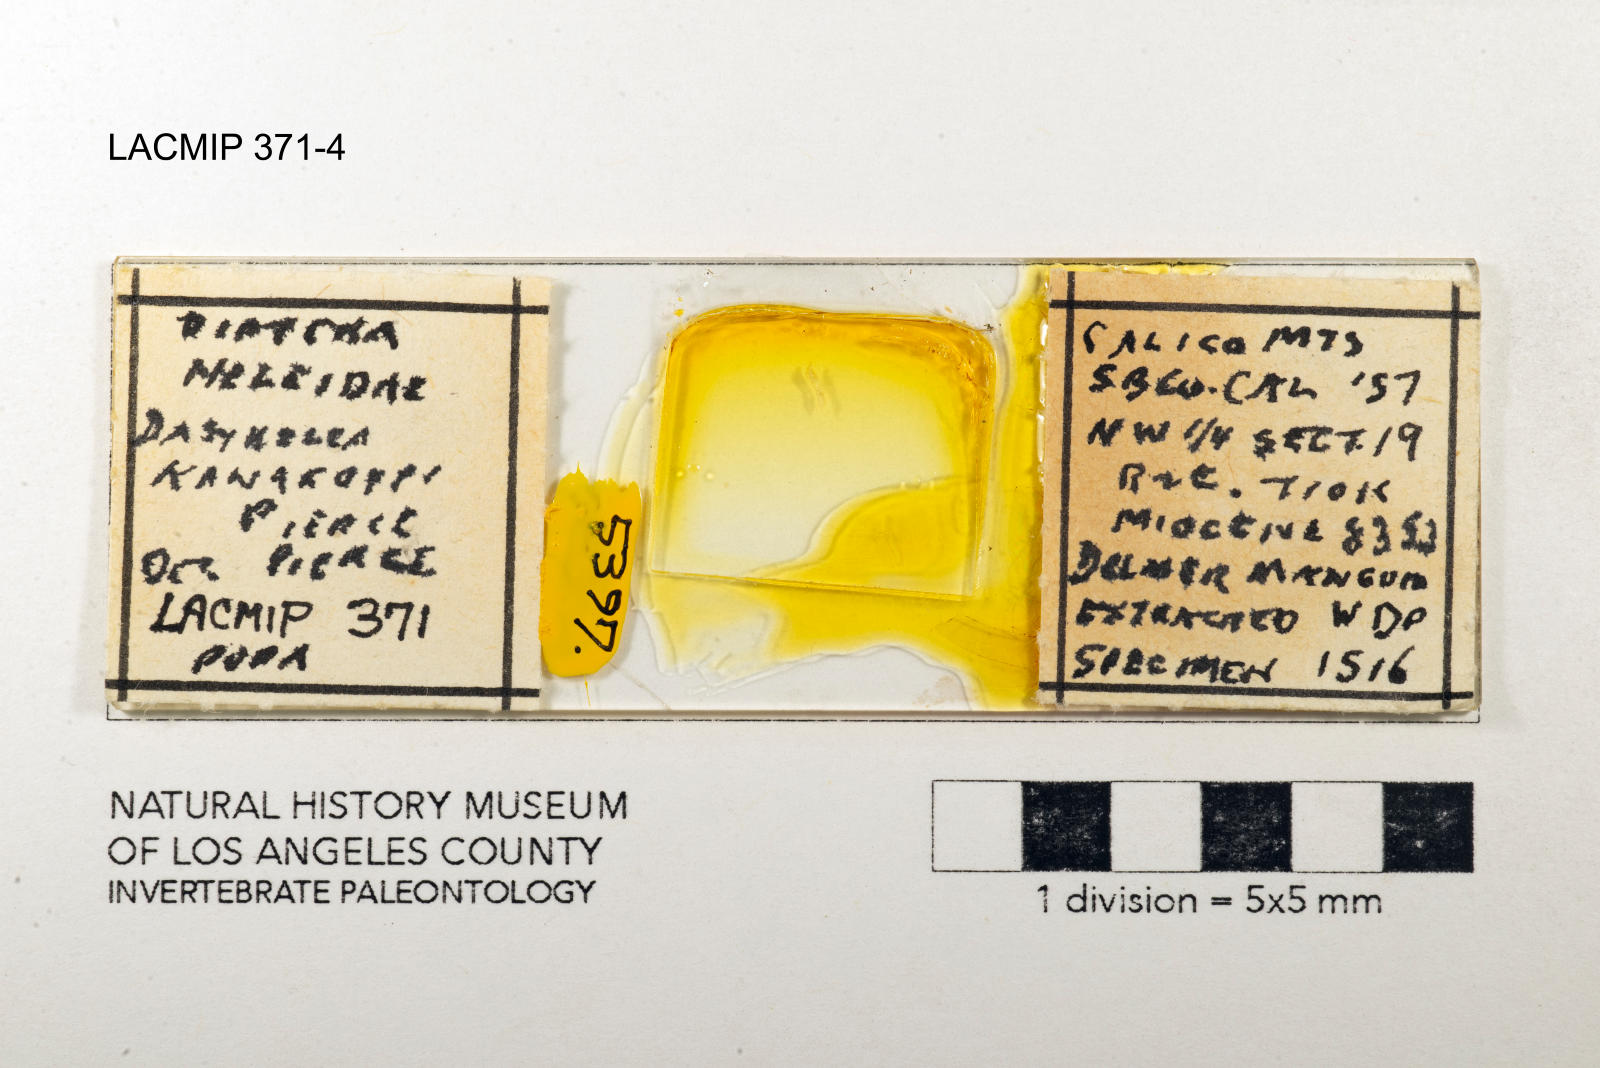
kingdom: Animalia
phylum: Arthropoda
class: Insecta
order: Diptera
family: Ceratopogonidae
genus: Dasyhelea
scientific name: Dasyhelea kanakoffi
